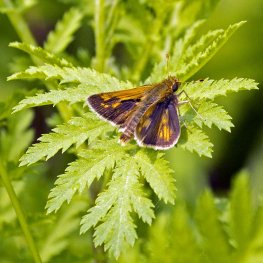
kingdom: Animalia
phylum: Arthropoda
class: Insecta
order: Lepidoptera
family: Hesperiidae
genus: Polites
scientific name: Polites
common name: Long Dash Skipper
